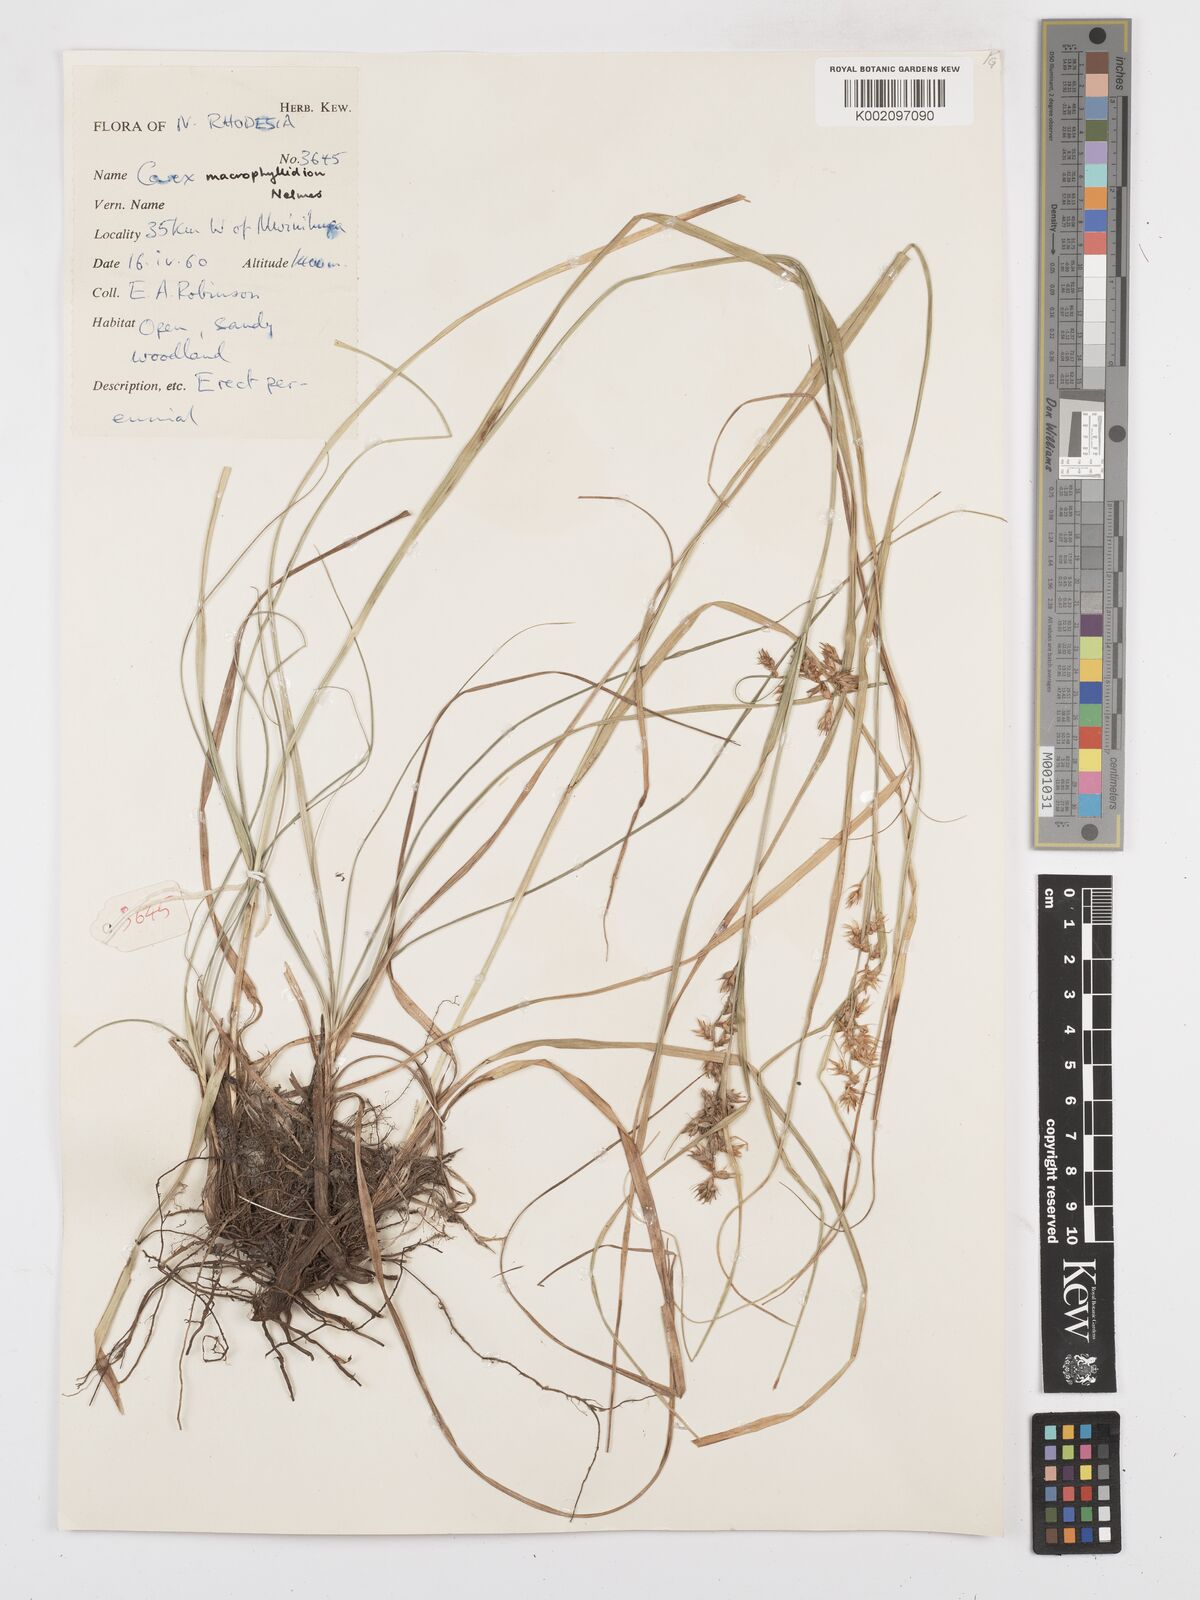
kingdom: Plantae
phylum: Tracheophyta
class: Liliopsida
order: Poales
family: Cyperaceae
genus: Carex
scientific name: Carex macrophyllidion
